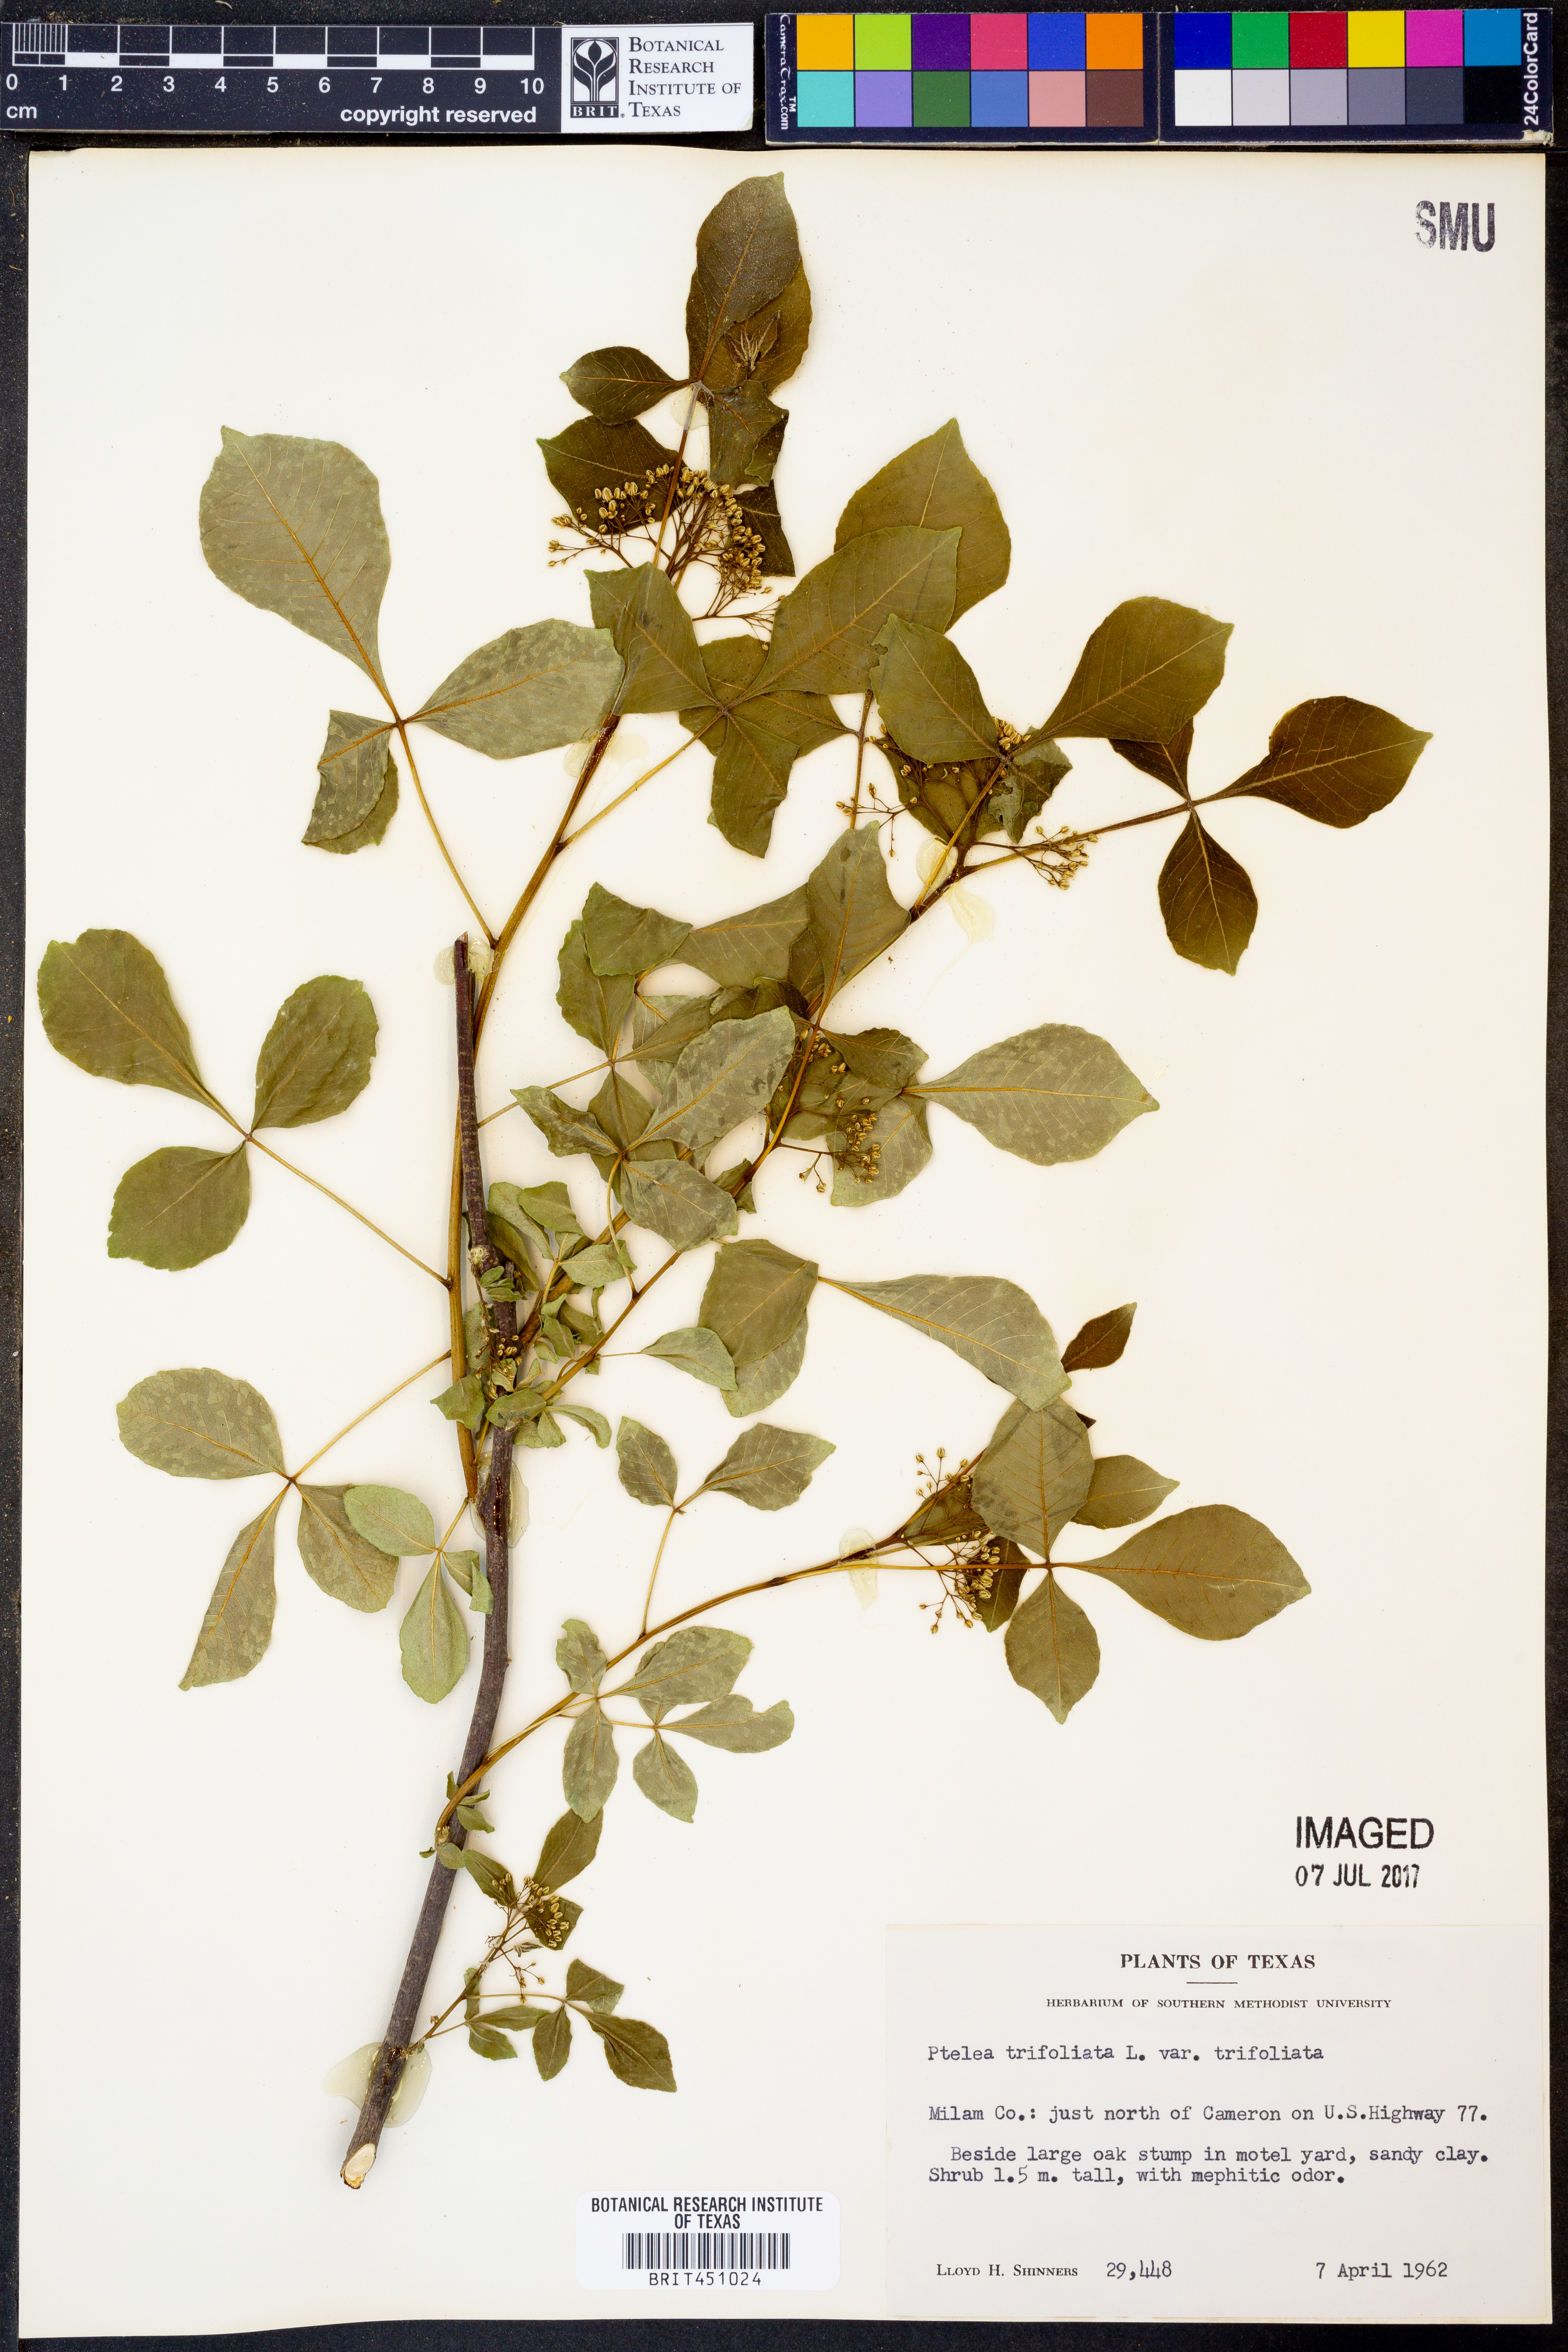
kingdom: Plantae
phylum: Tracheophyta
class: Magnoliopsida
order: Sapindales
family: Rutaceae
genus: Ptelea
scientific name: Ptelea trifoliata
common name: Common hop-tree
